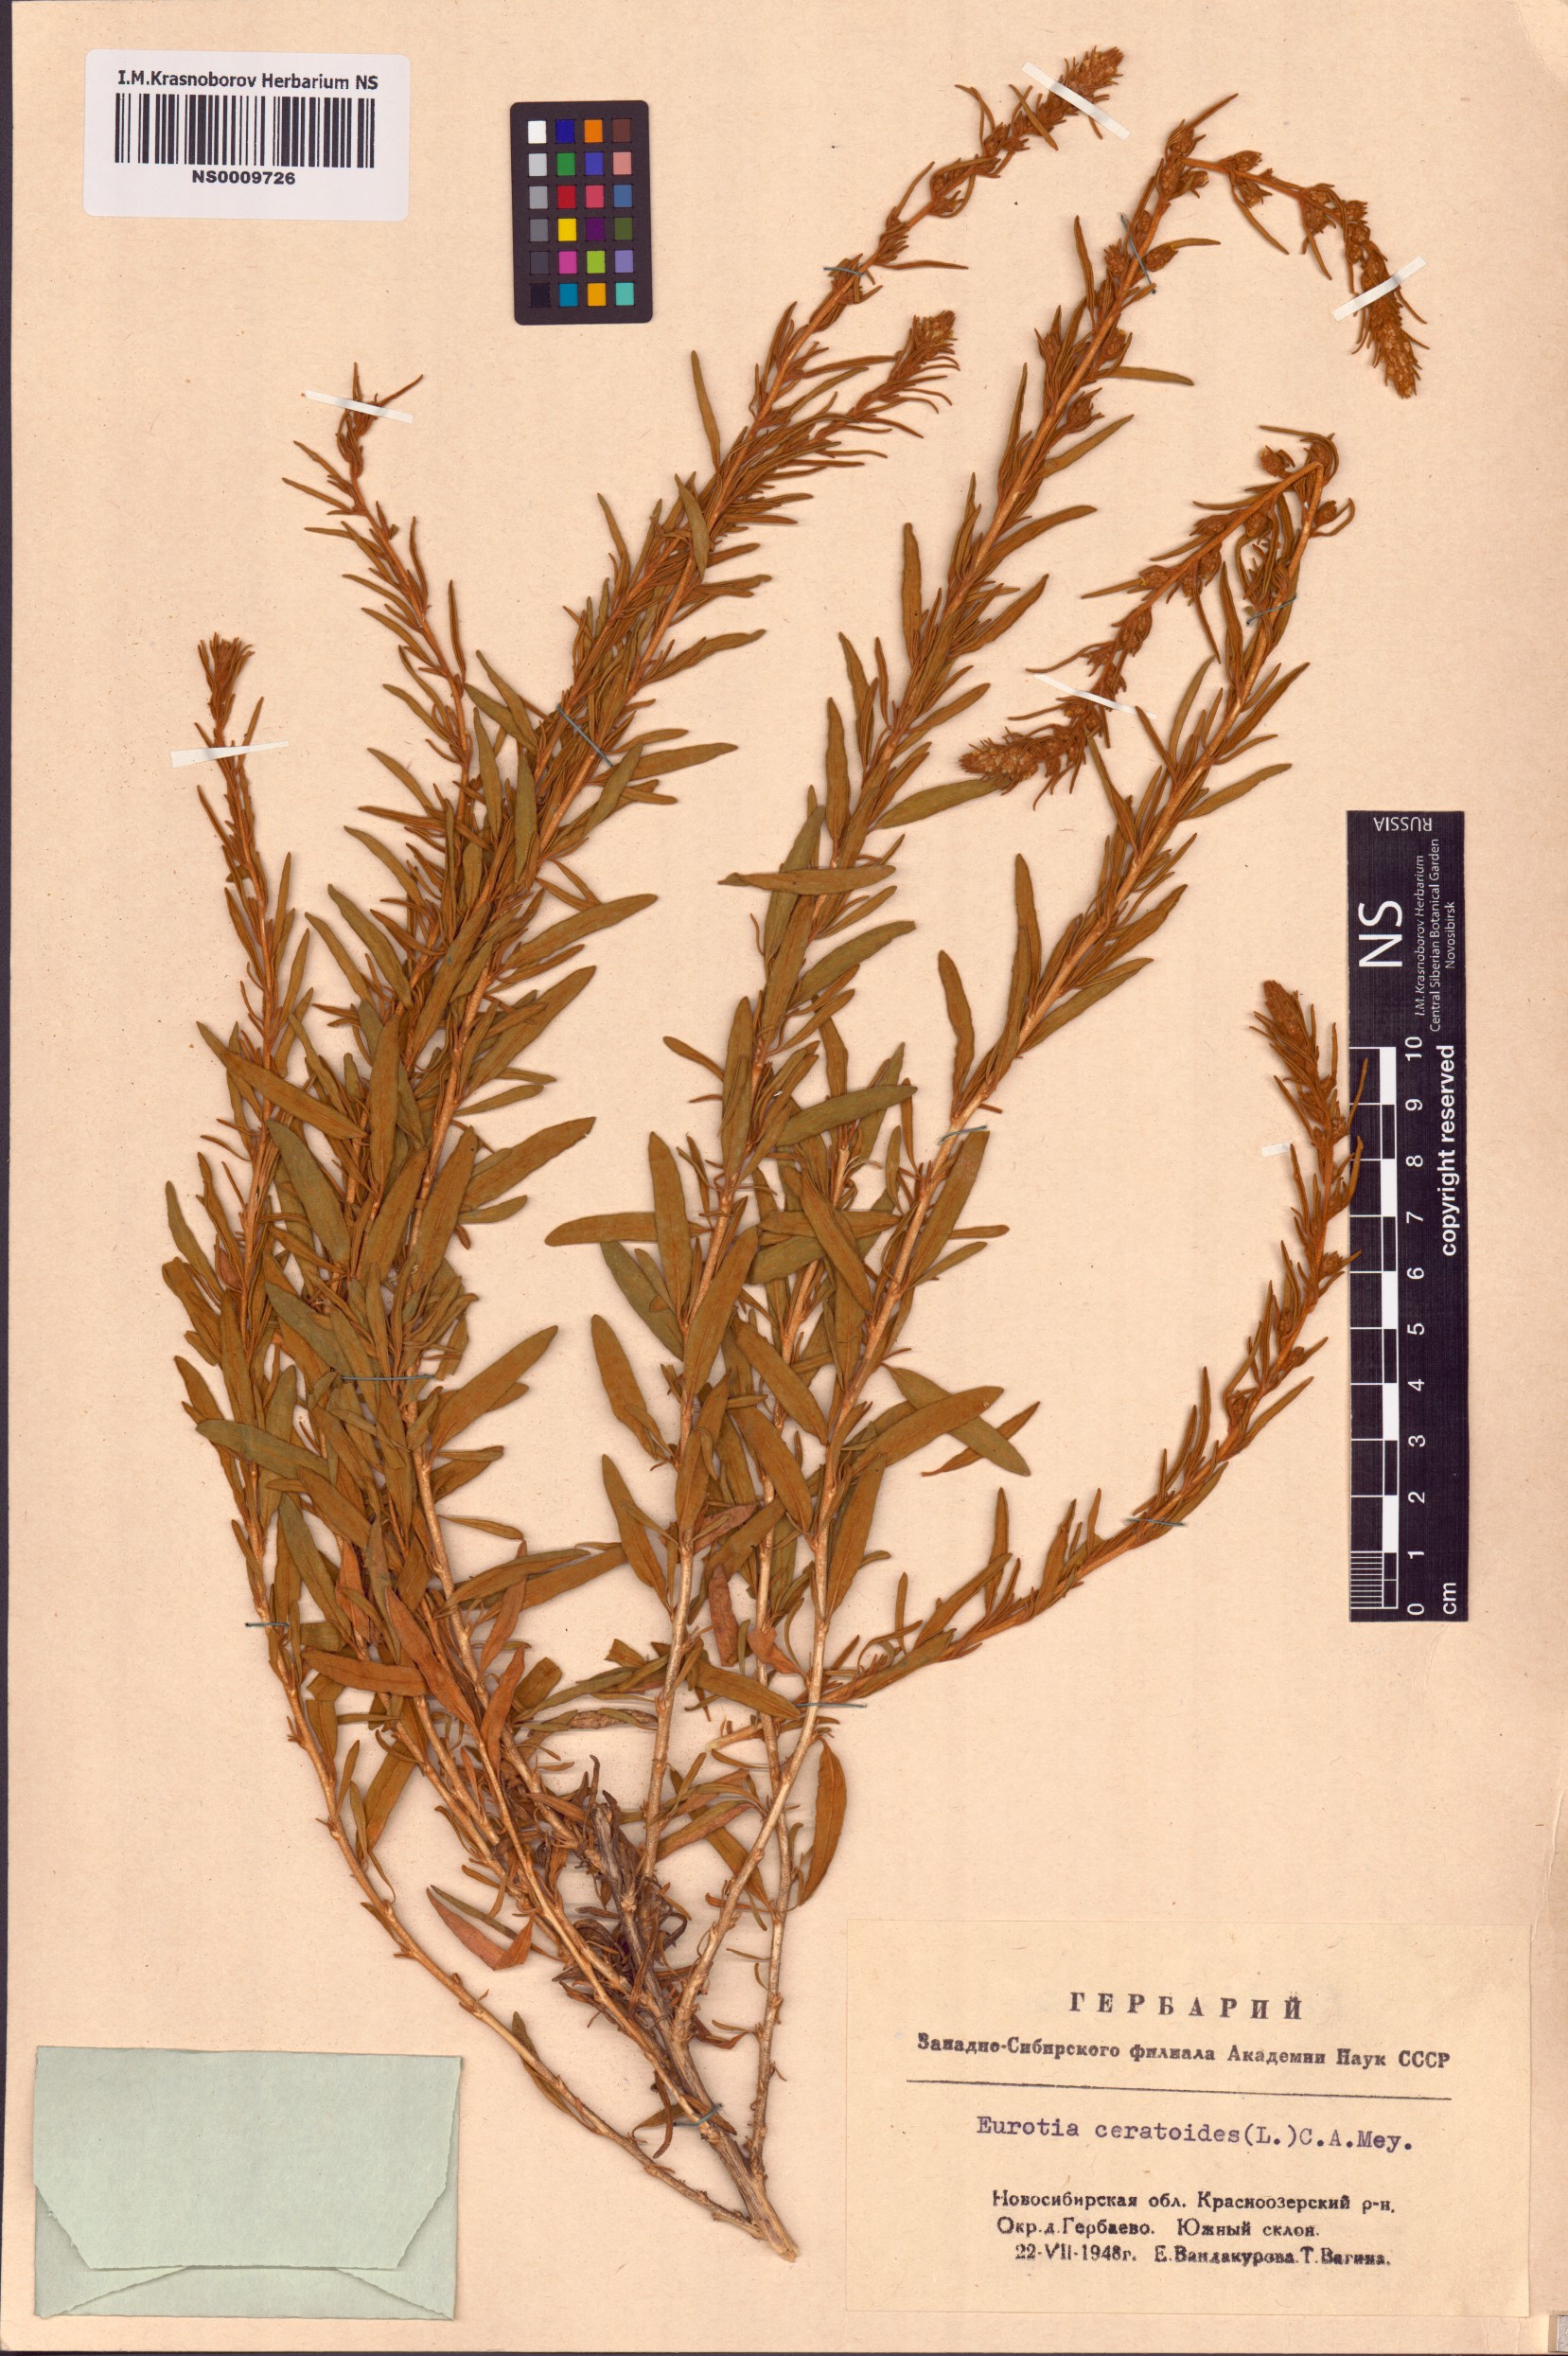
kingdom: Plantae
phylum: Tracheophyta
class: Magnoliopsida
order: Caryophyllales
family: Amaranthaceae
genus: Krascheninnikovia
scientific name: Krascheninnikovia ceratoides
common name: Pamirian winterfat
